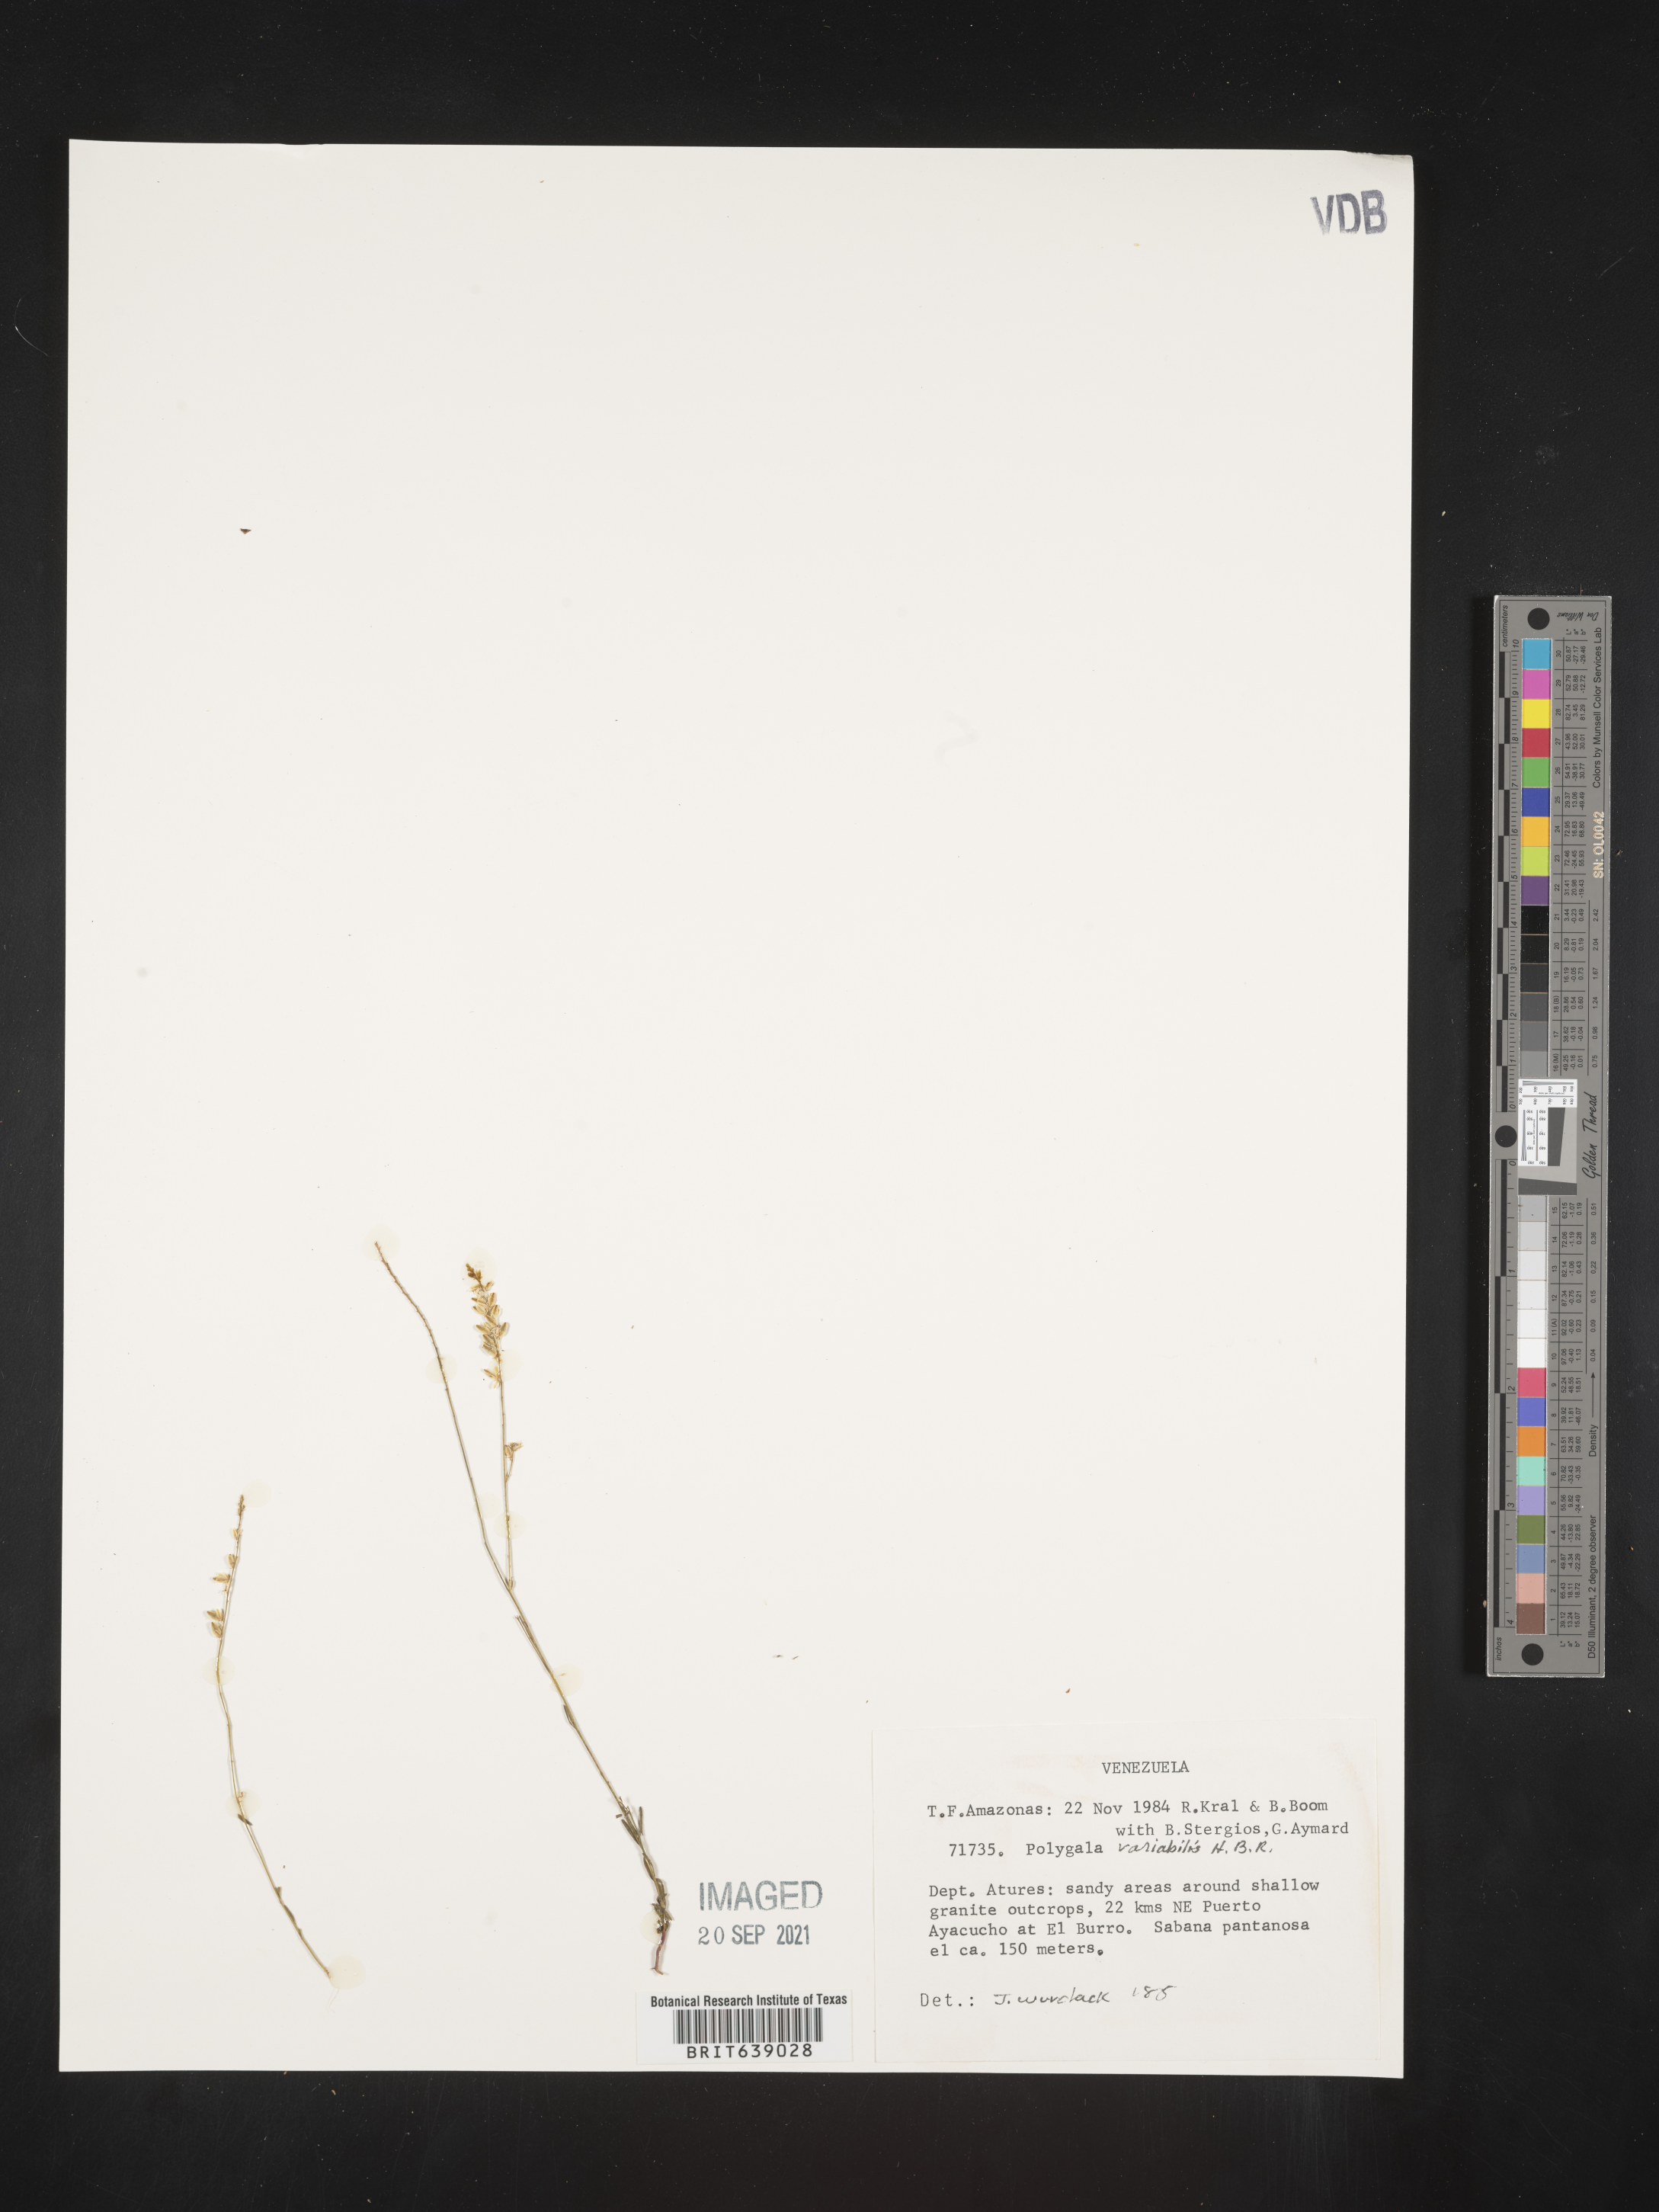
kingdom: Plantae
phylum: Tracheophyta
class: Magnoliopsida
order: Fabales
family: Polygalaceae
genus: Polygala
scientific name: Polygala
